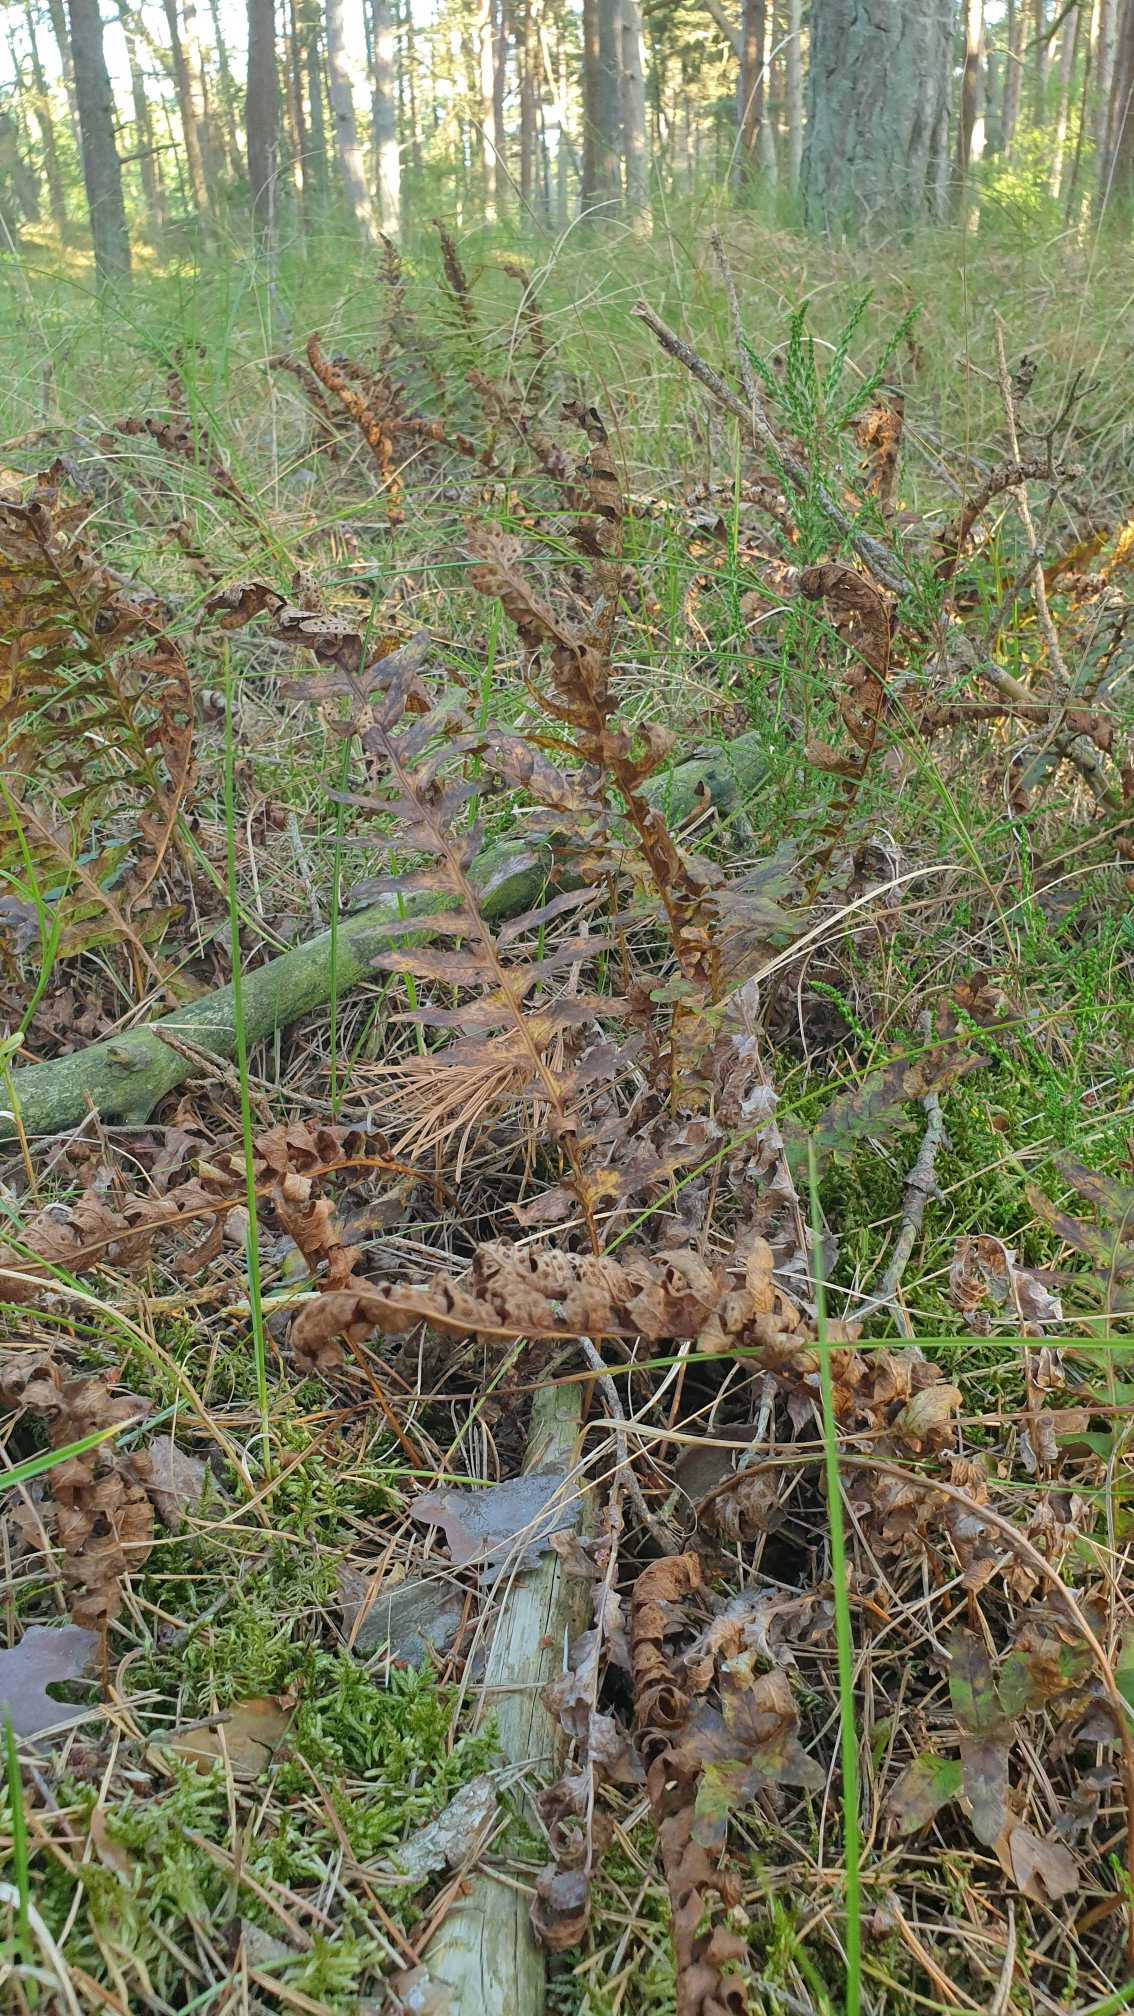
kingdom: Plantae
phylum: Tracheophyta
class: Polypodiopsida
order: Polypodiales
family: Polypodiaceae
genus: Polypodium
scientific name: Polypodium vulgare
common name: Almindelig engelsød
